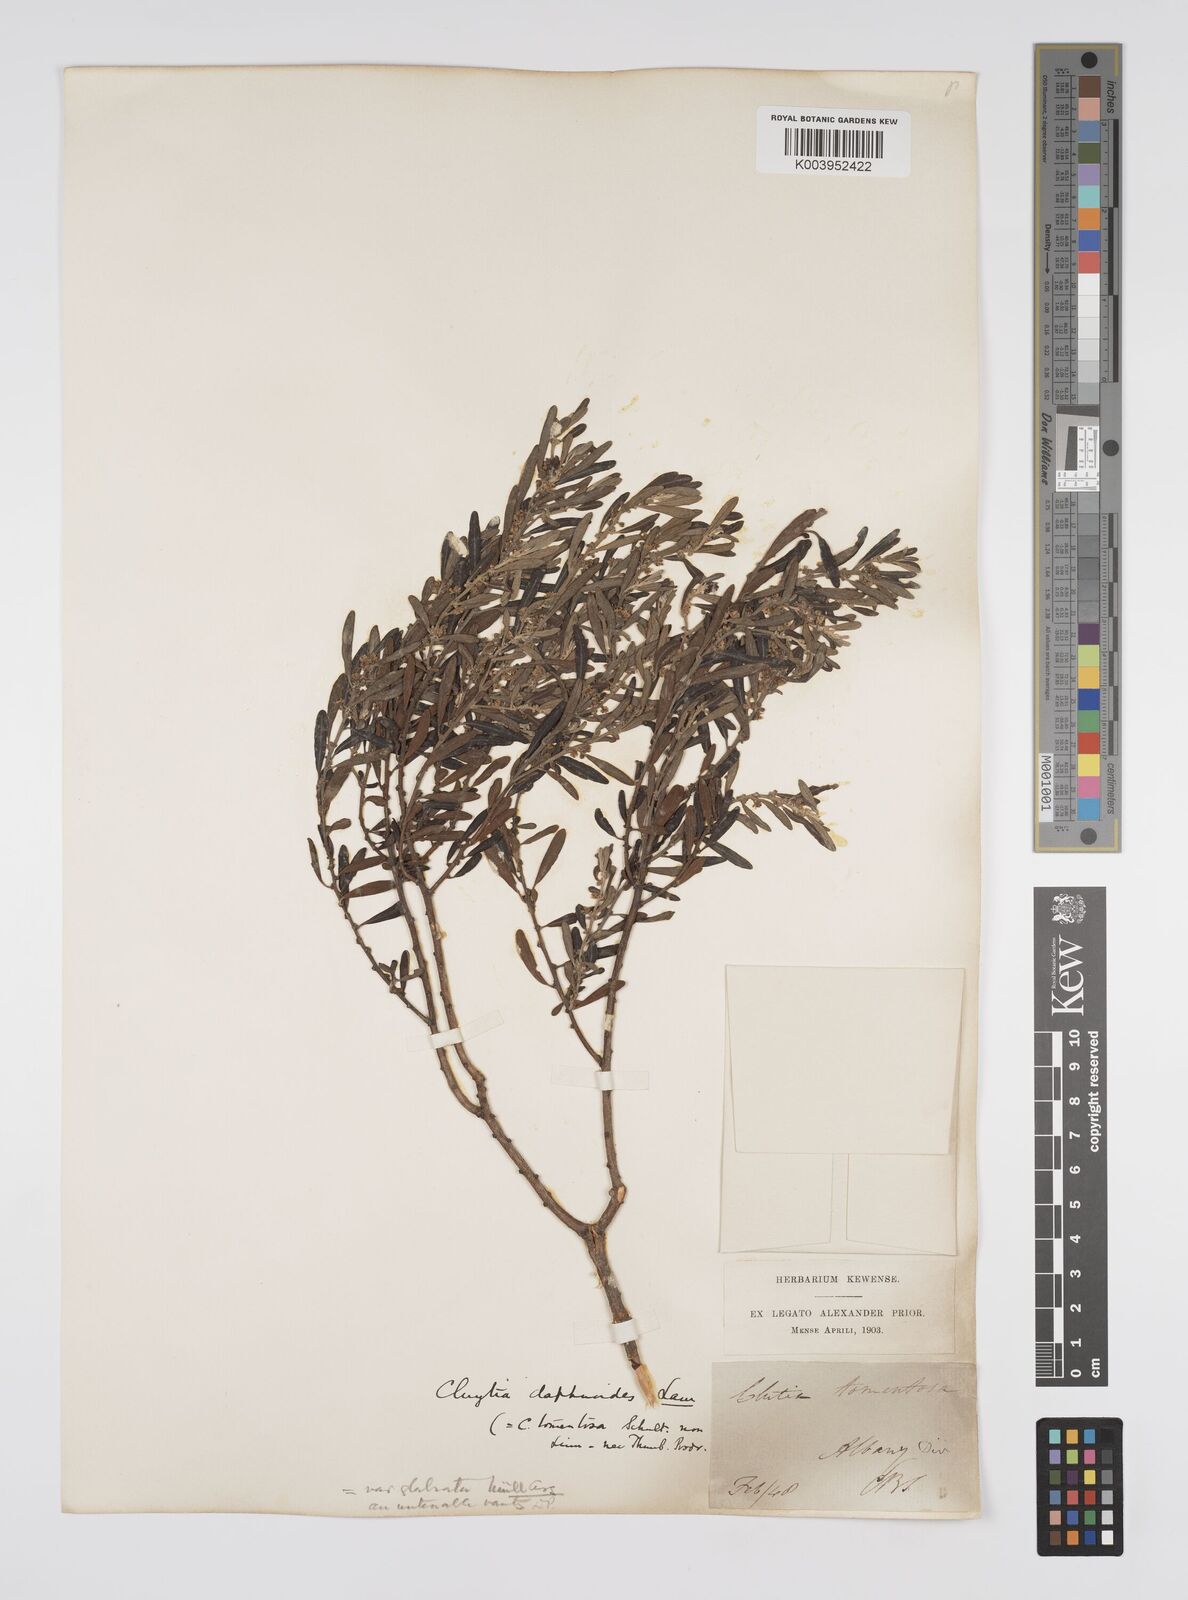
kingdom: Plantae
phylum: Tracheophyta
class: Magnoliopsida
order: Malpighiales
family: Peraceae
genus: Clutia
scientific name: Clutia daphnoides
